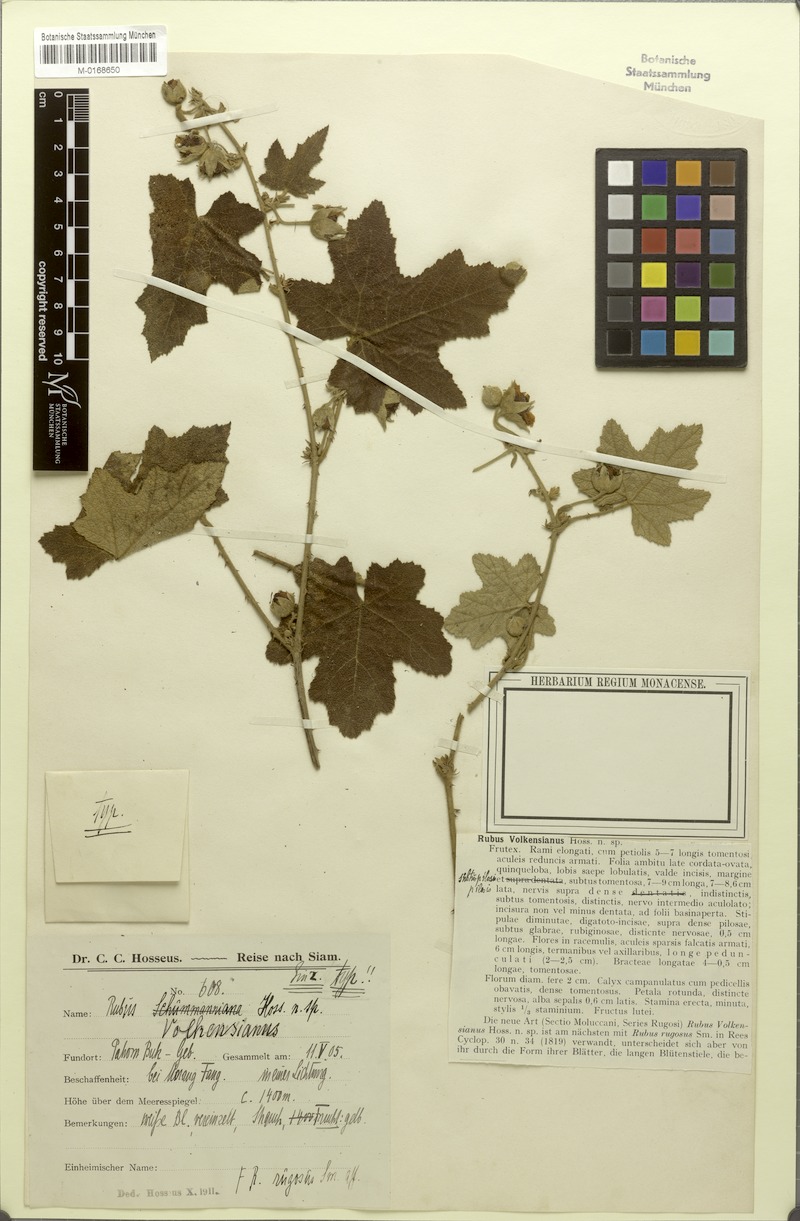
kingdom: Plantae
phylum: Tracheophyta
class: Magnoliopsida
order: Rosales
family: Rosaceae
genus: Rubus
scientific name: Rubus volkensianus
